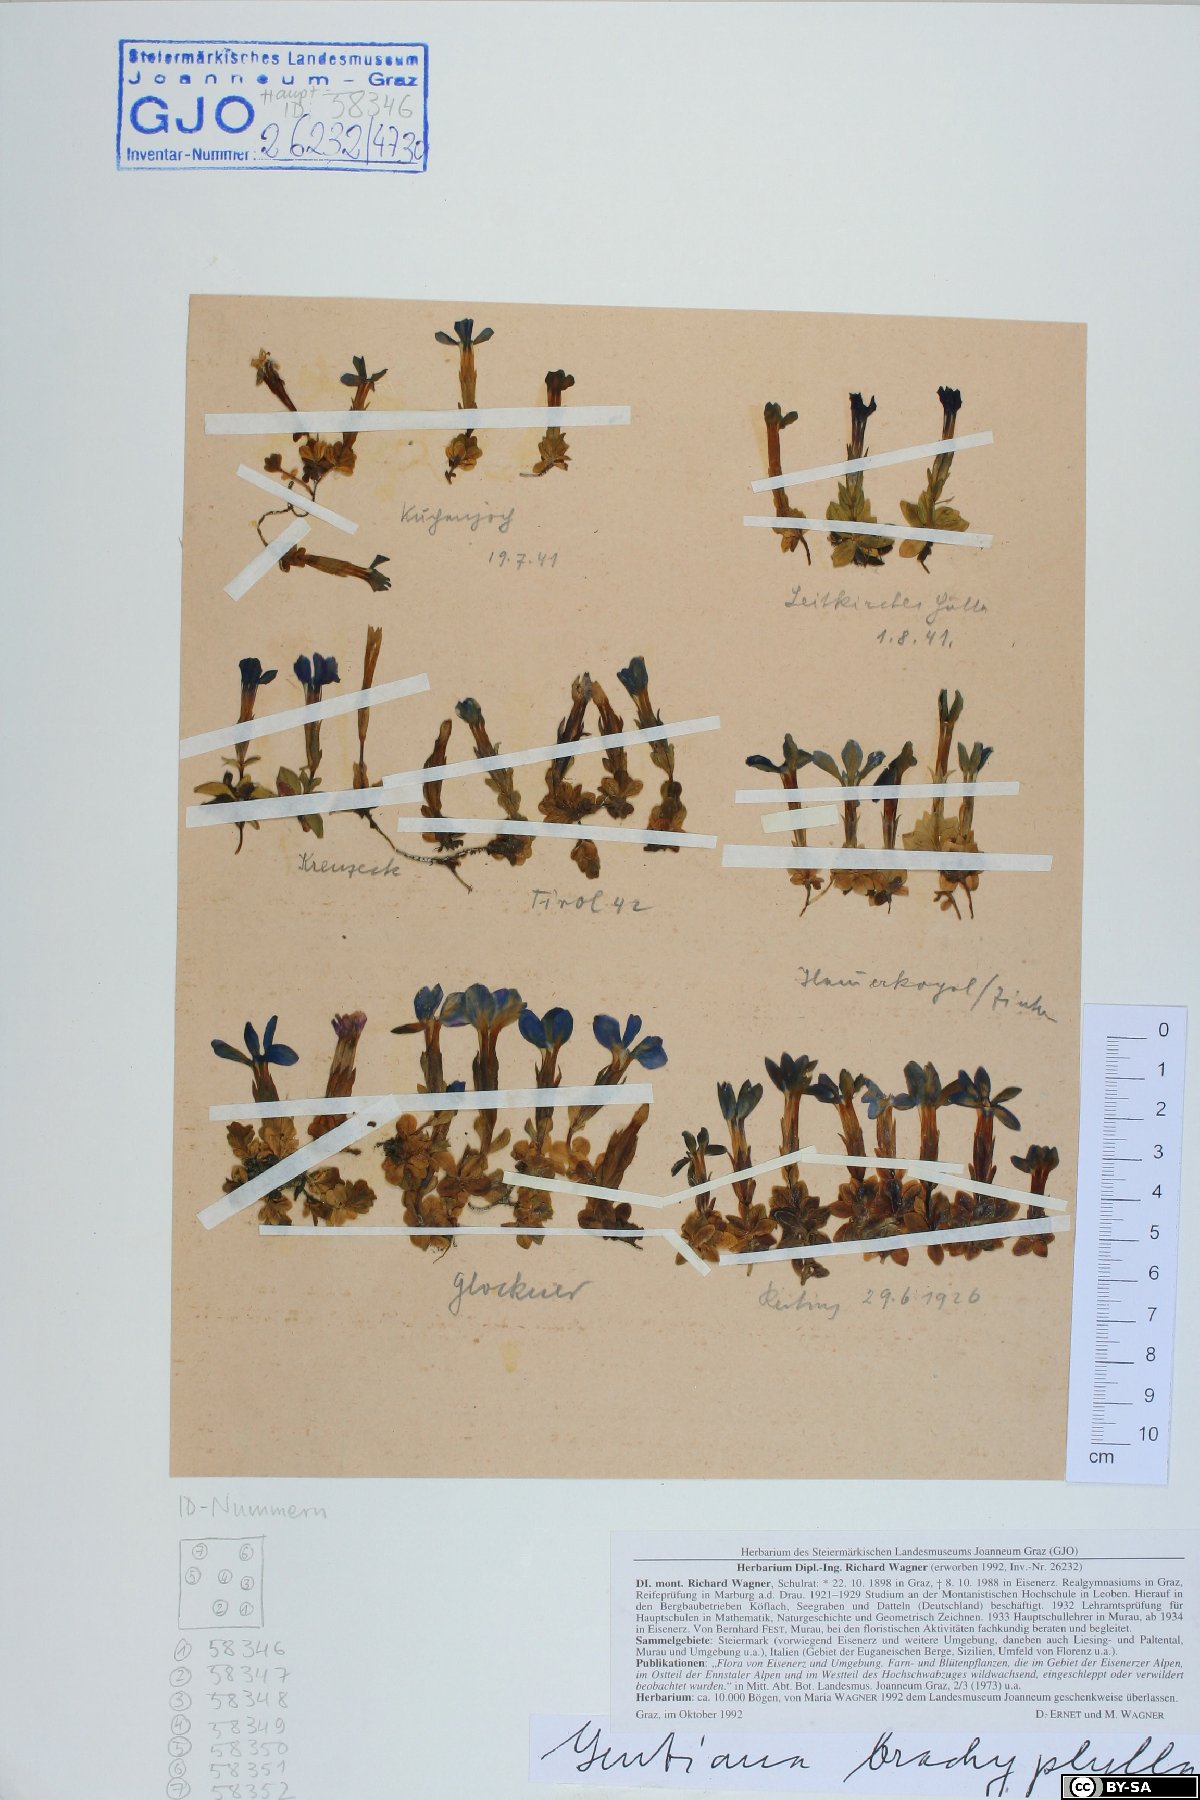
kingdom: Plantae
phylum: Tracheophyta
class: Magnoliopsida
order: Gentianales
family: Gentianaceae
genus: Gentiana
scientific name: Gentiana brachyphylla
